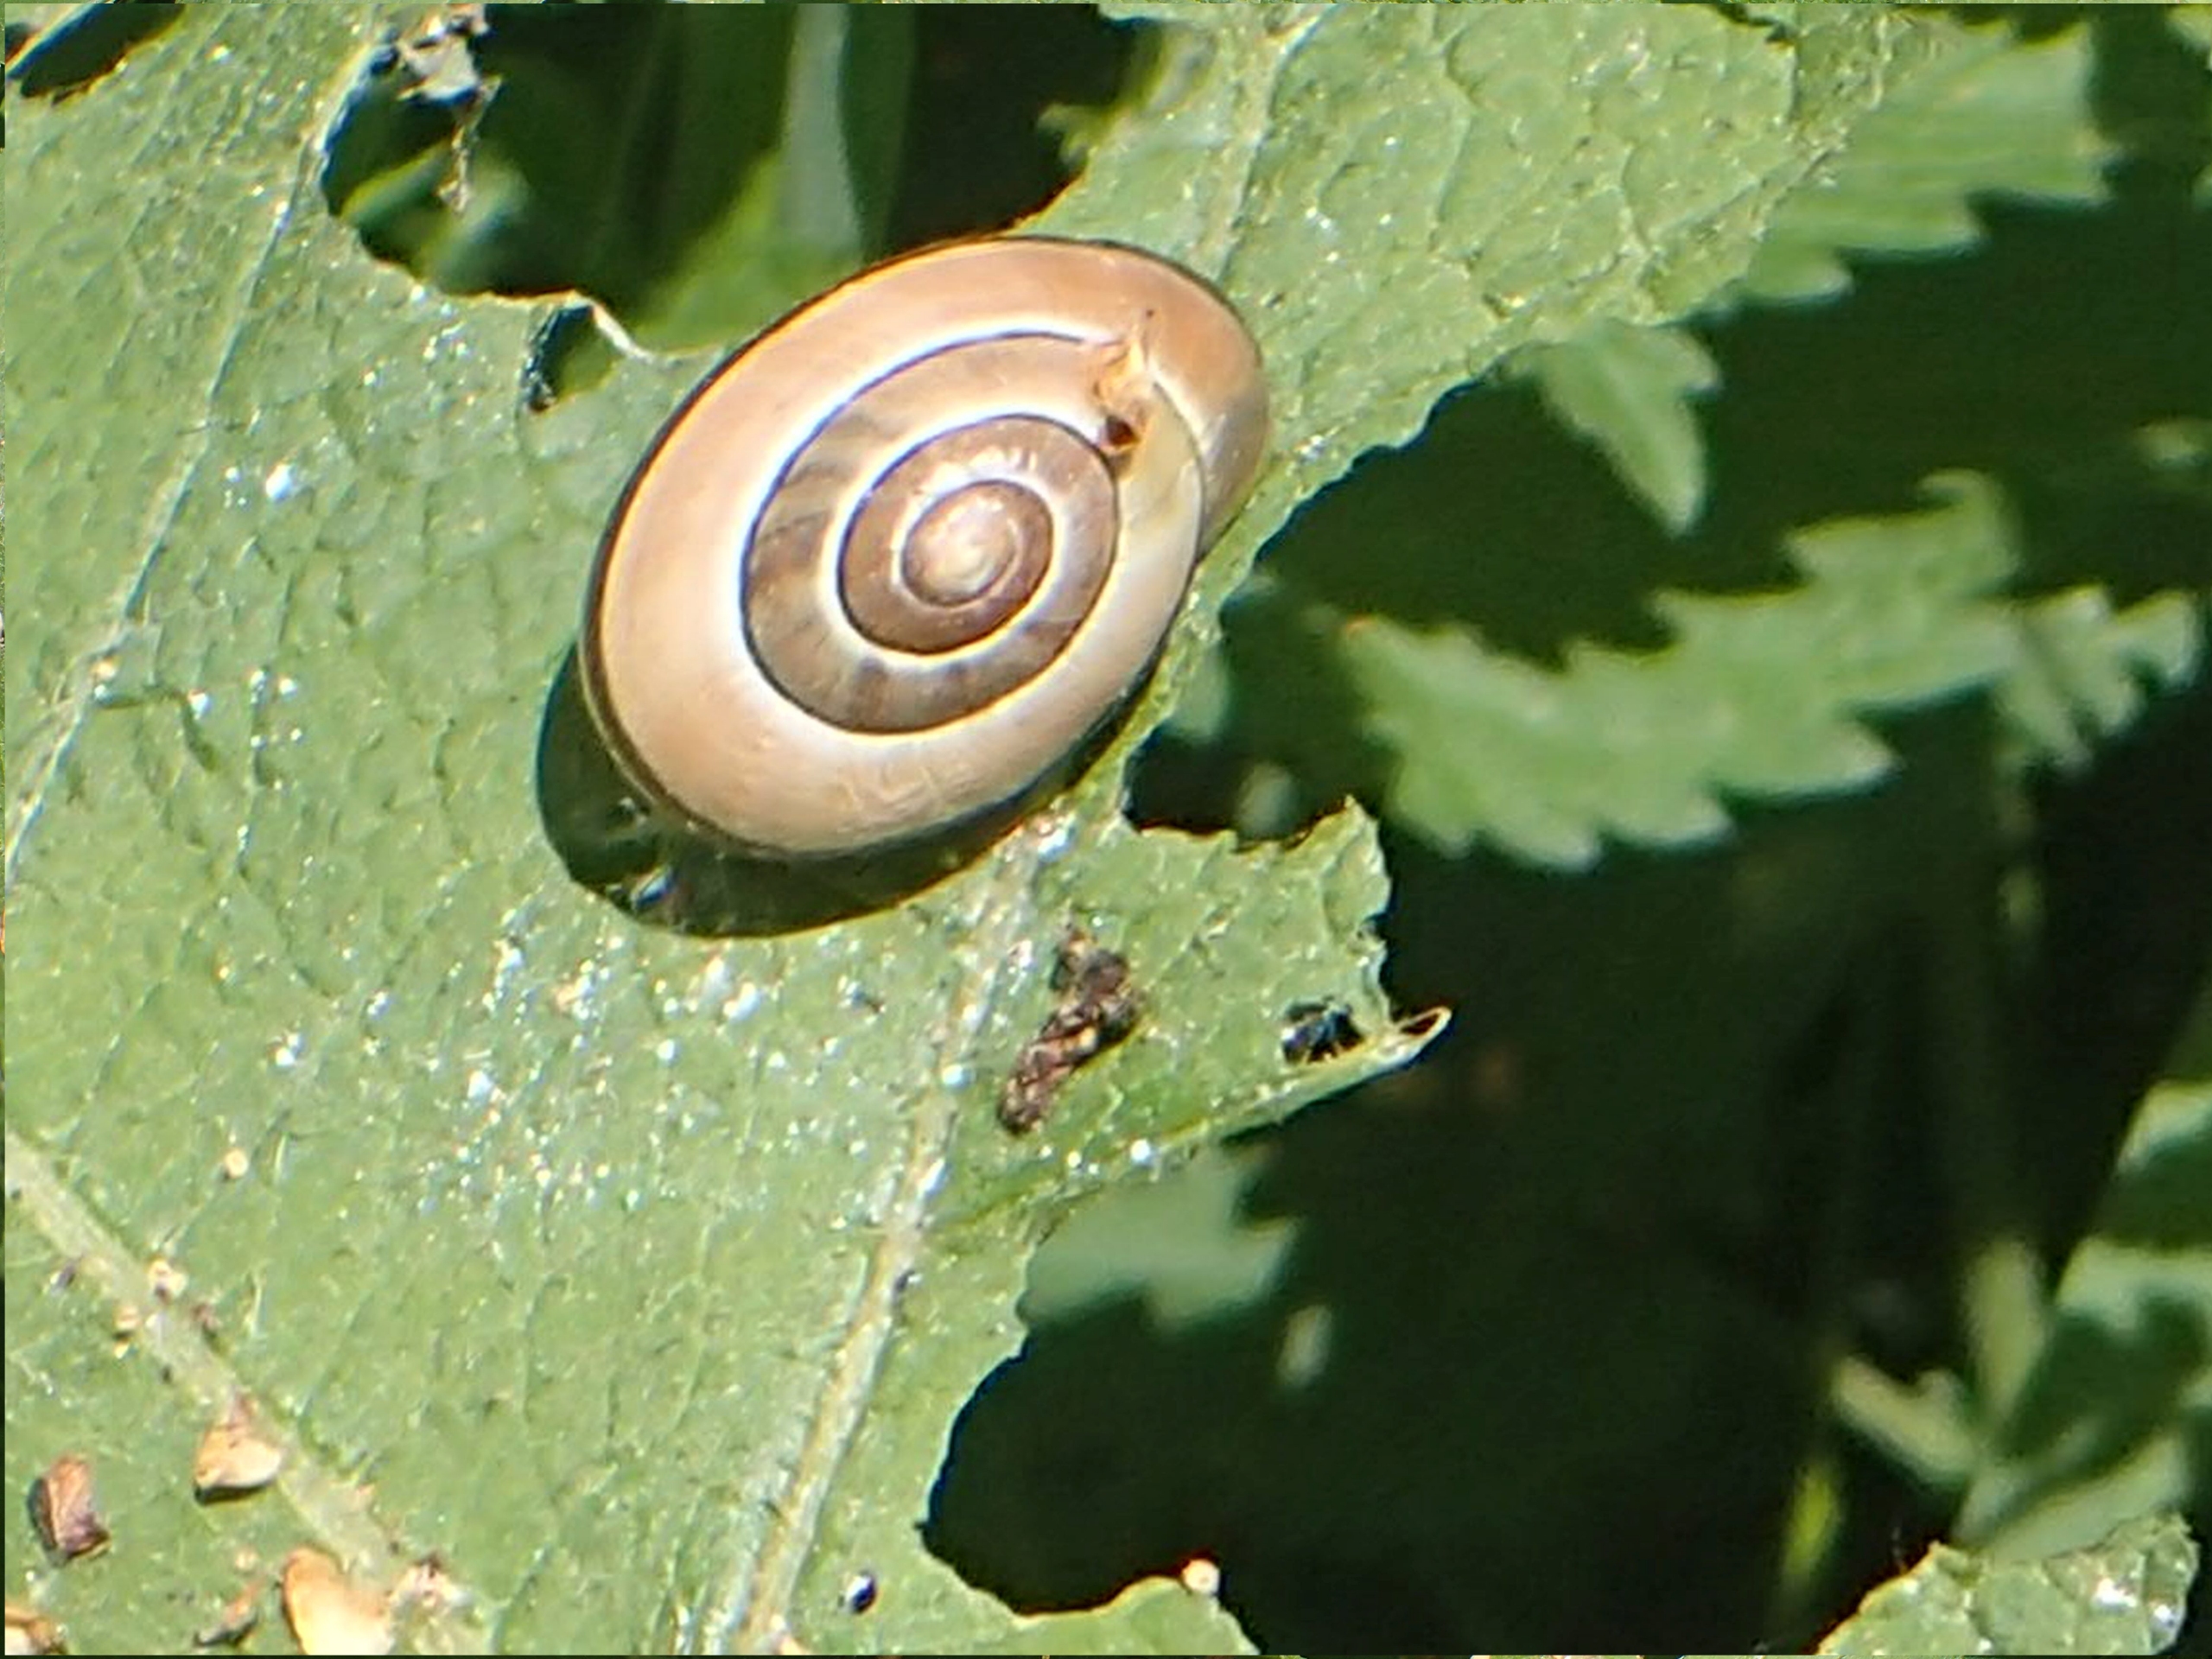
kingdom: Animalia
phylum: Mollusca
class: Gastropoda
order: Stylommatophora
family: Helicidae
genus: Cepaea
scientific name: Cepaea hortensis
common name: Havesnegl
